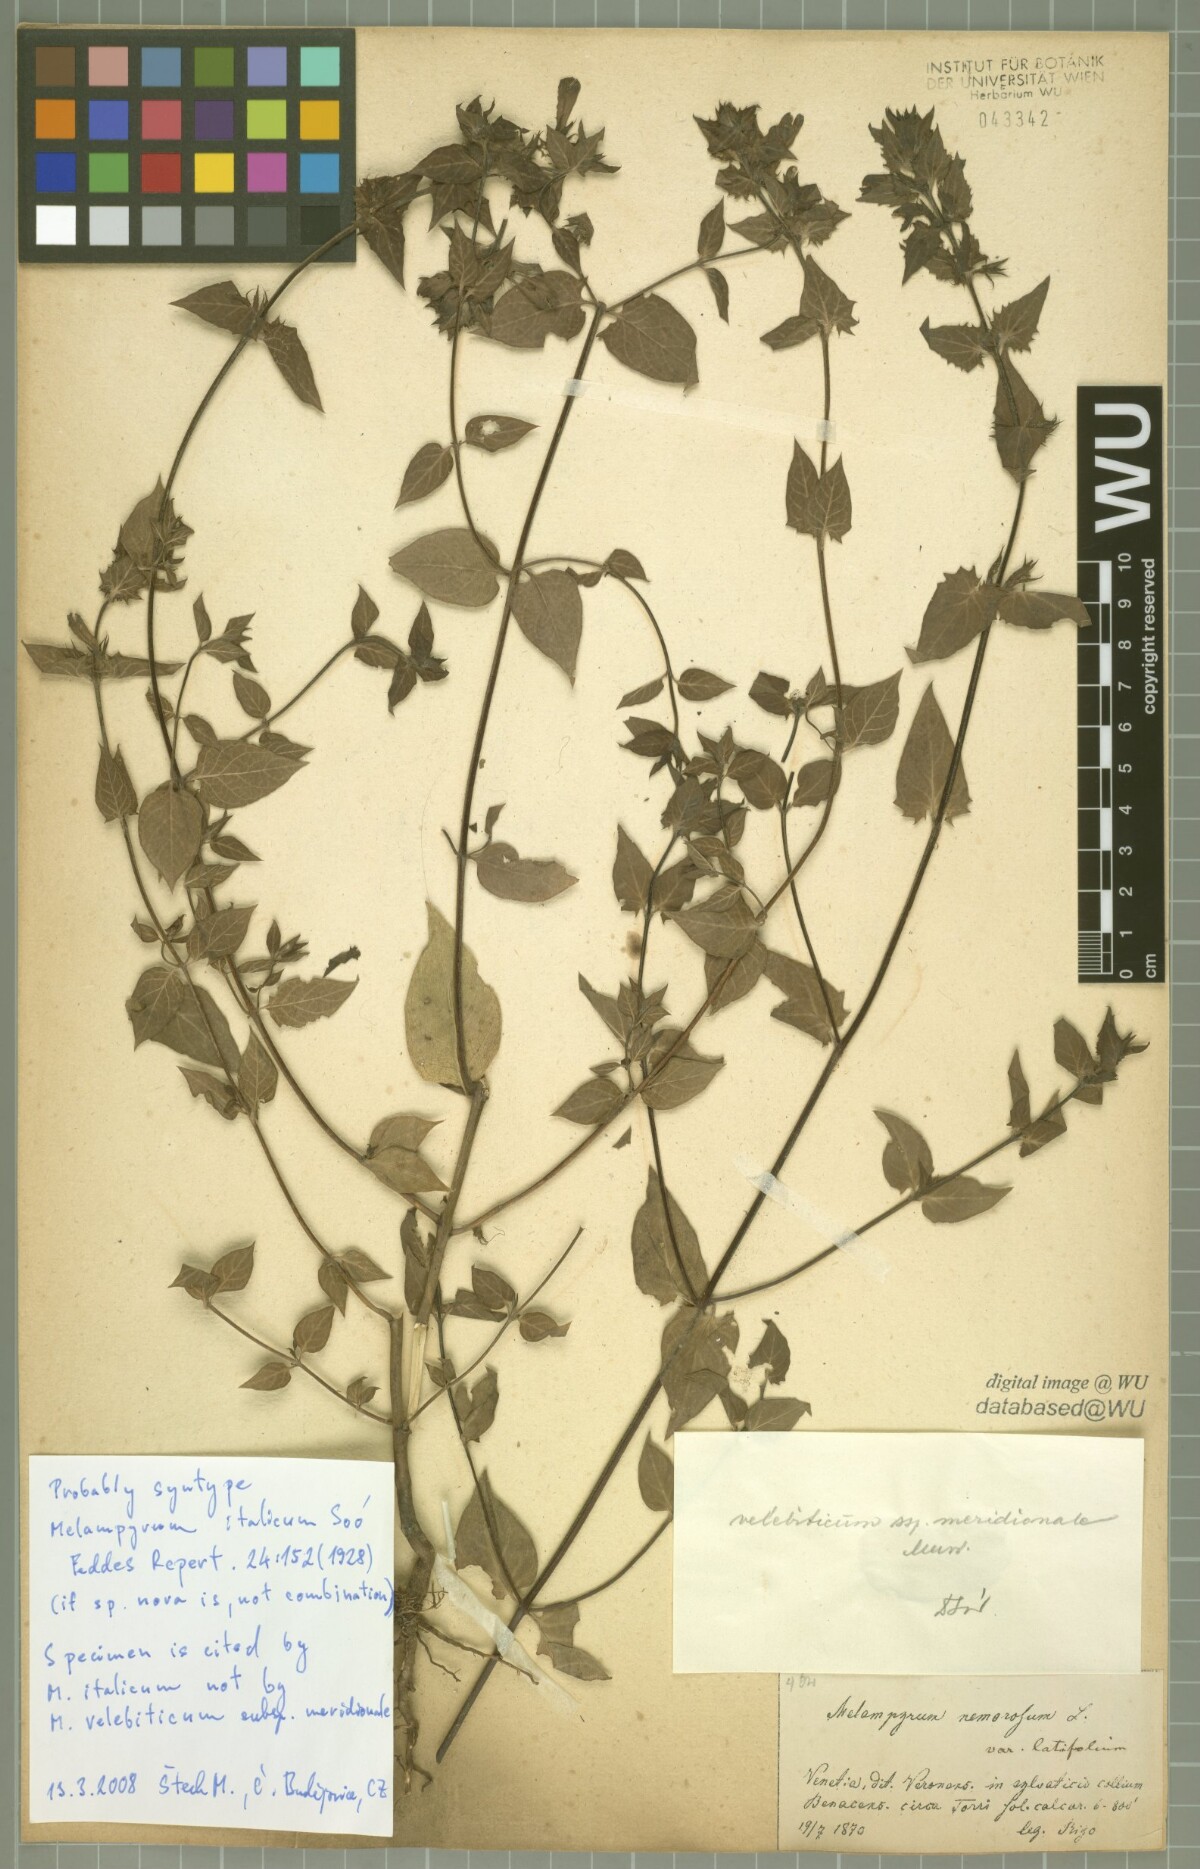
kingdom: Plantae
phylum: Tracheophyta
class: Magnoliopsida
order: Lamiales
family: Orobanchaceae
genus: Melampyrum
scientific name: Melampyrum italicum
